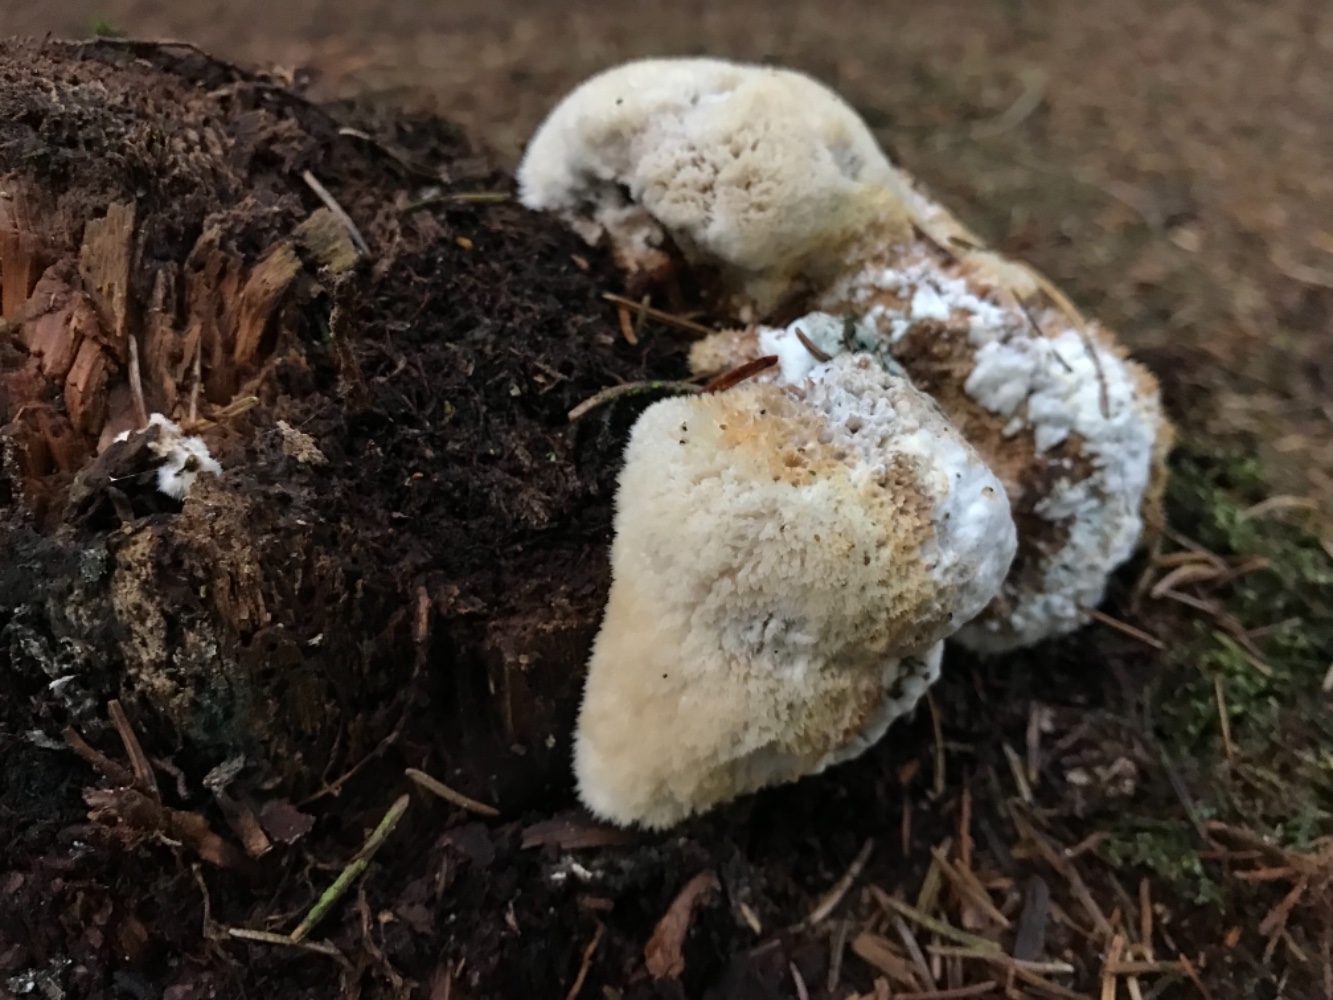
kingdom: Fungi
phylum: Basidiomycota
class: Agaricomycetes
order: Polyporales
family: Dacryobolaceae
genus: Postia
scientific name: Postia ptychogaster
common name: støvende kødporesvamp
